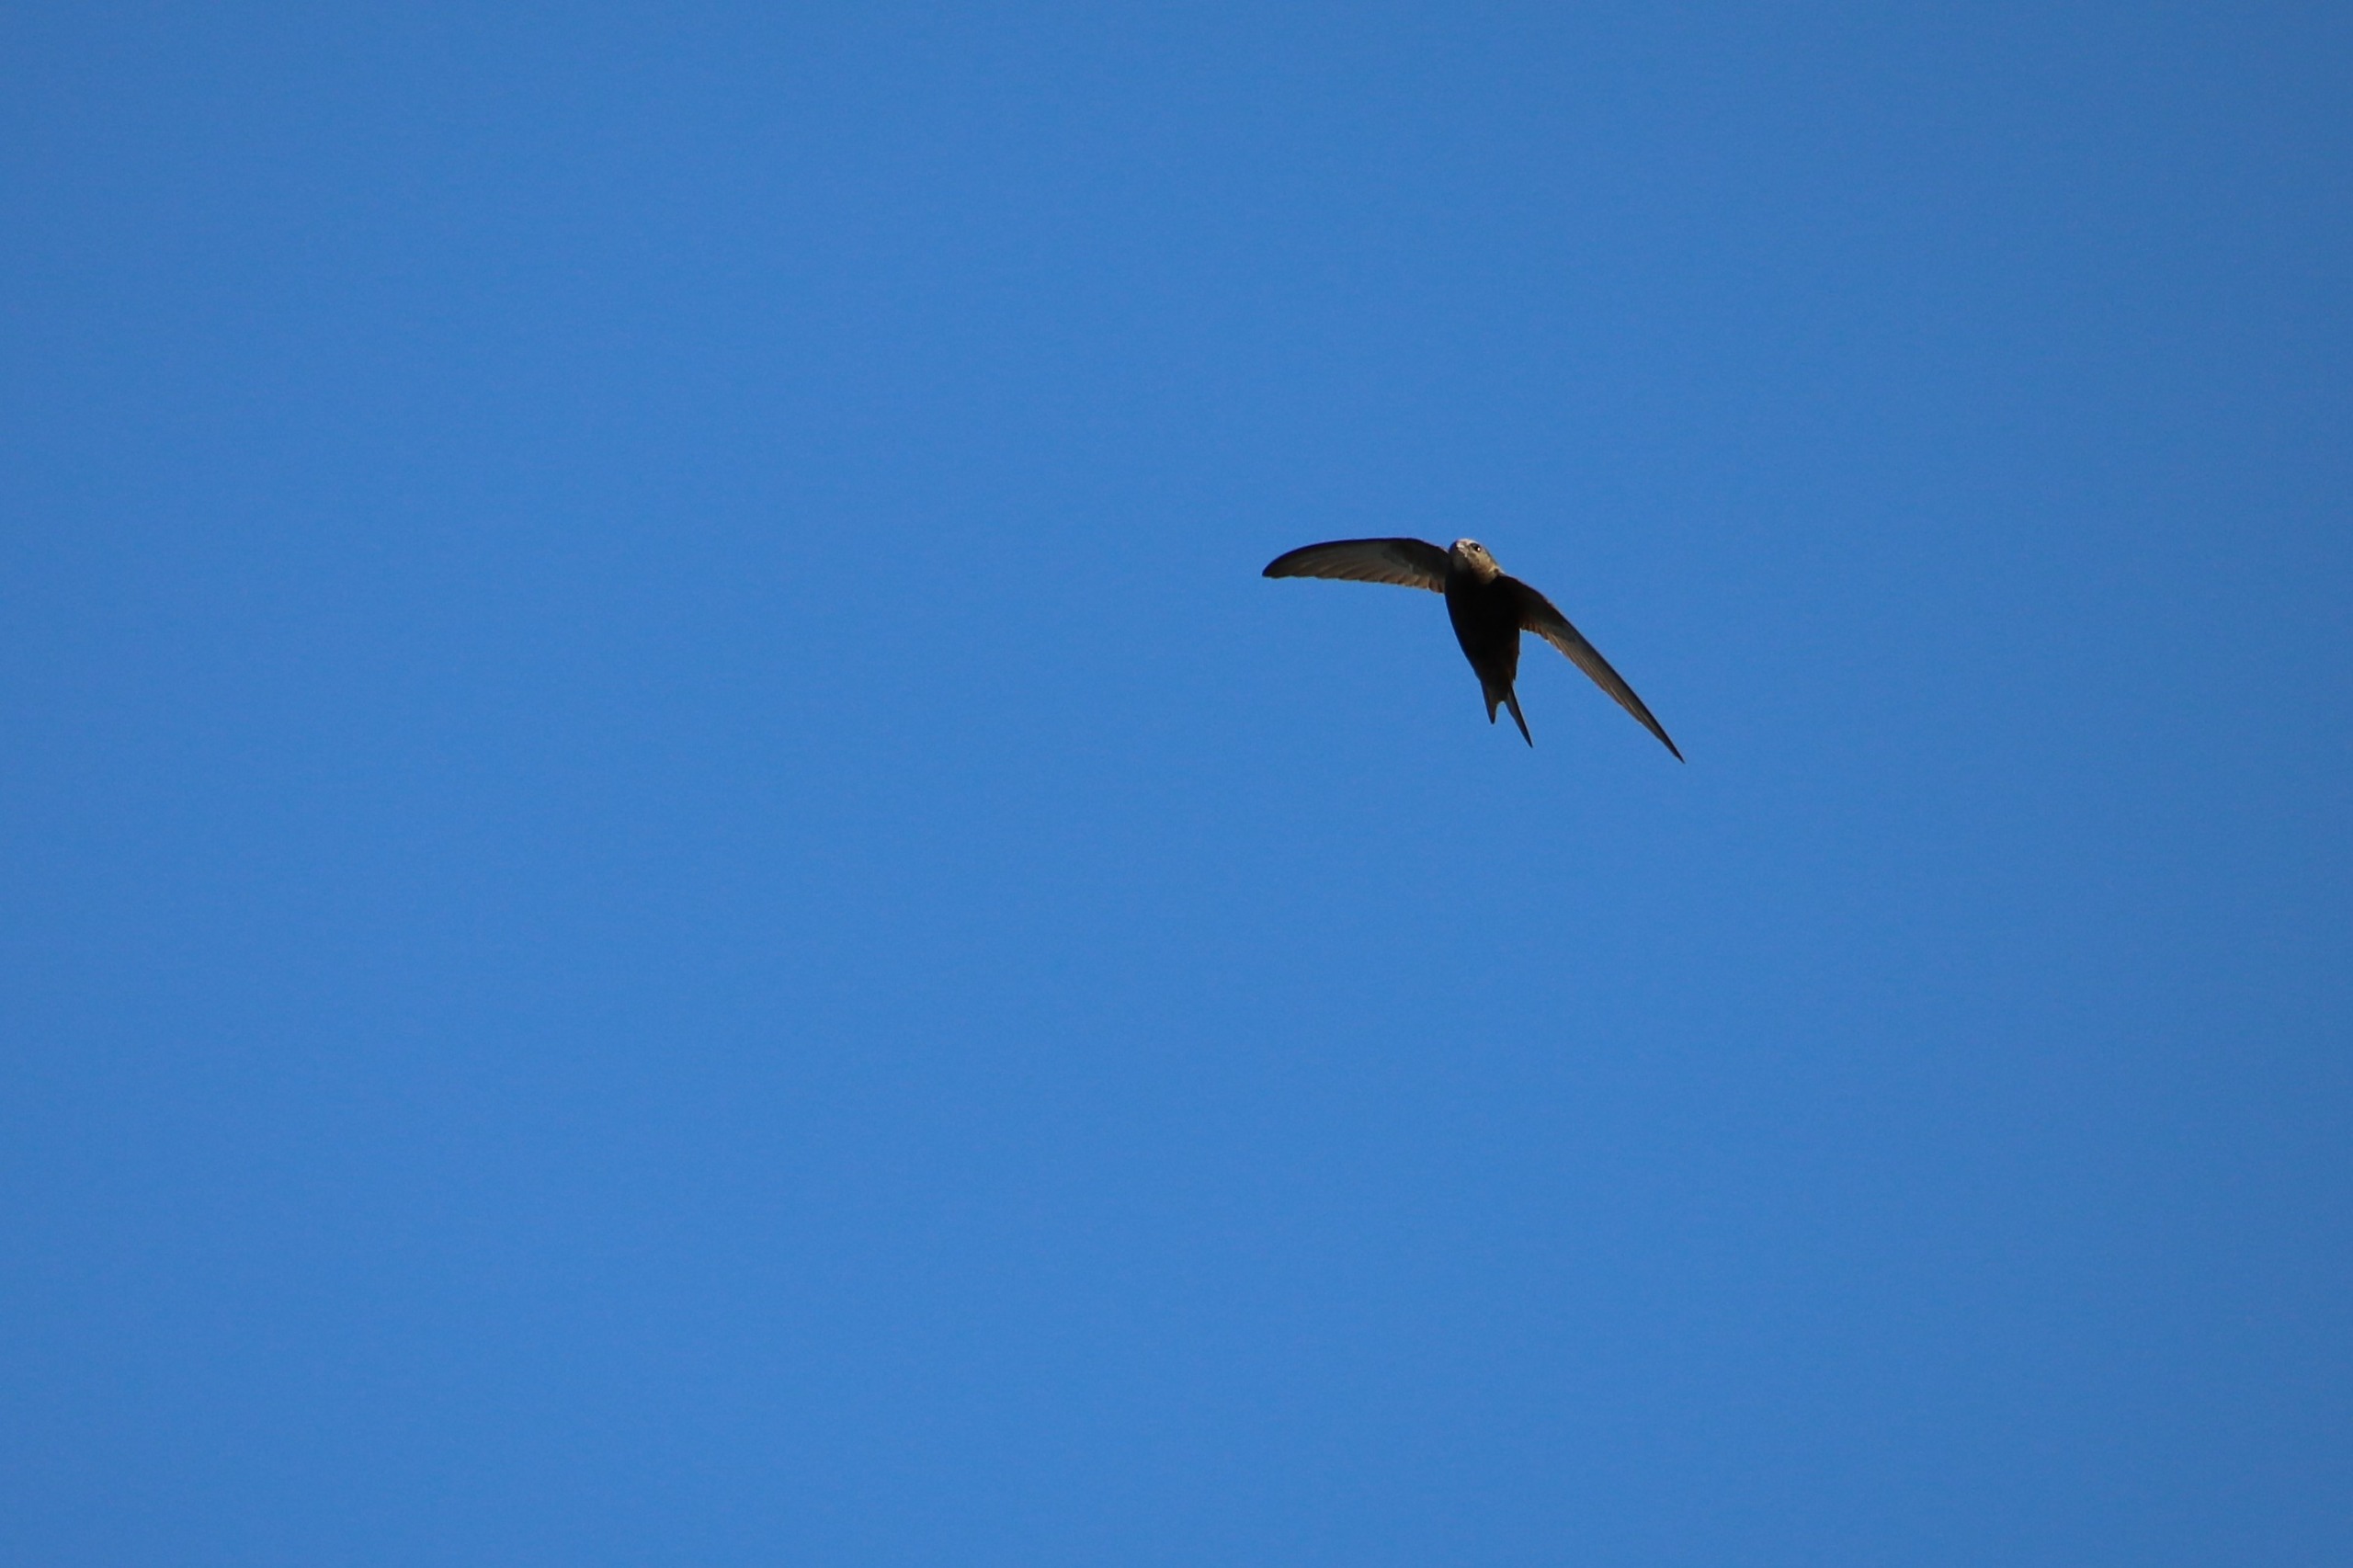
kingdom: Animalia
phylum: Chordata
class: Aves
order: Apodiformes
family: Apodidae
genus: Apus
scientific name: Apus apus
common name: Mursejler
